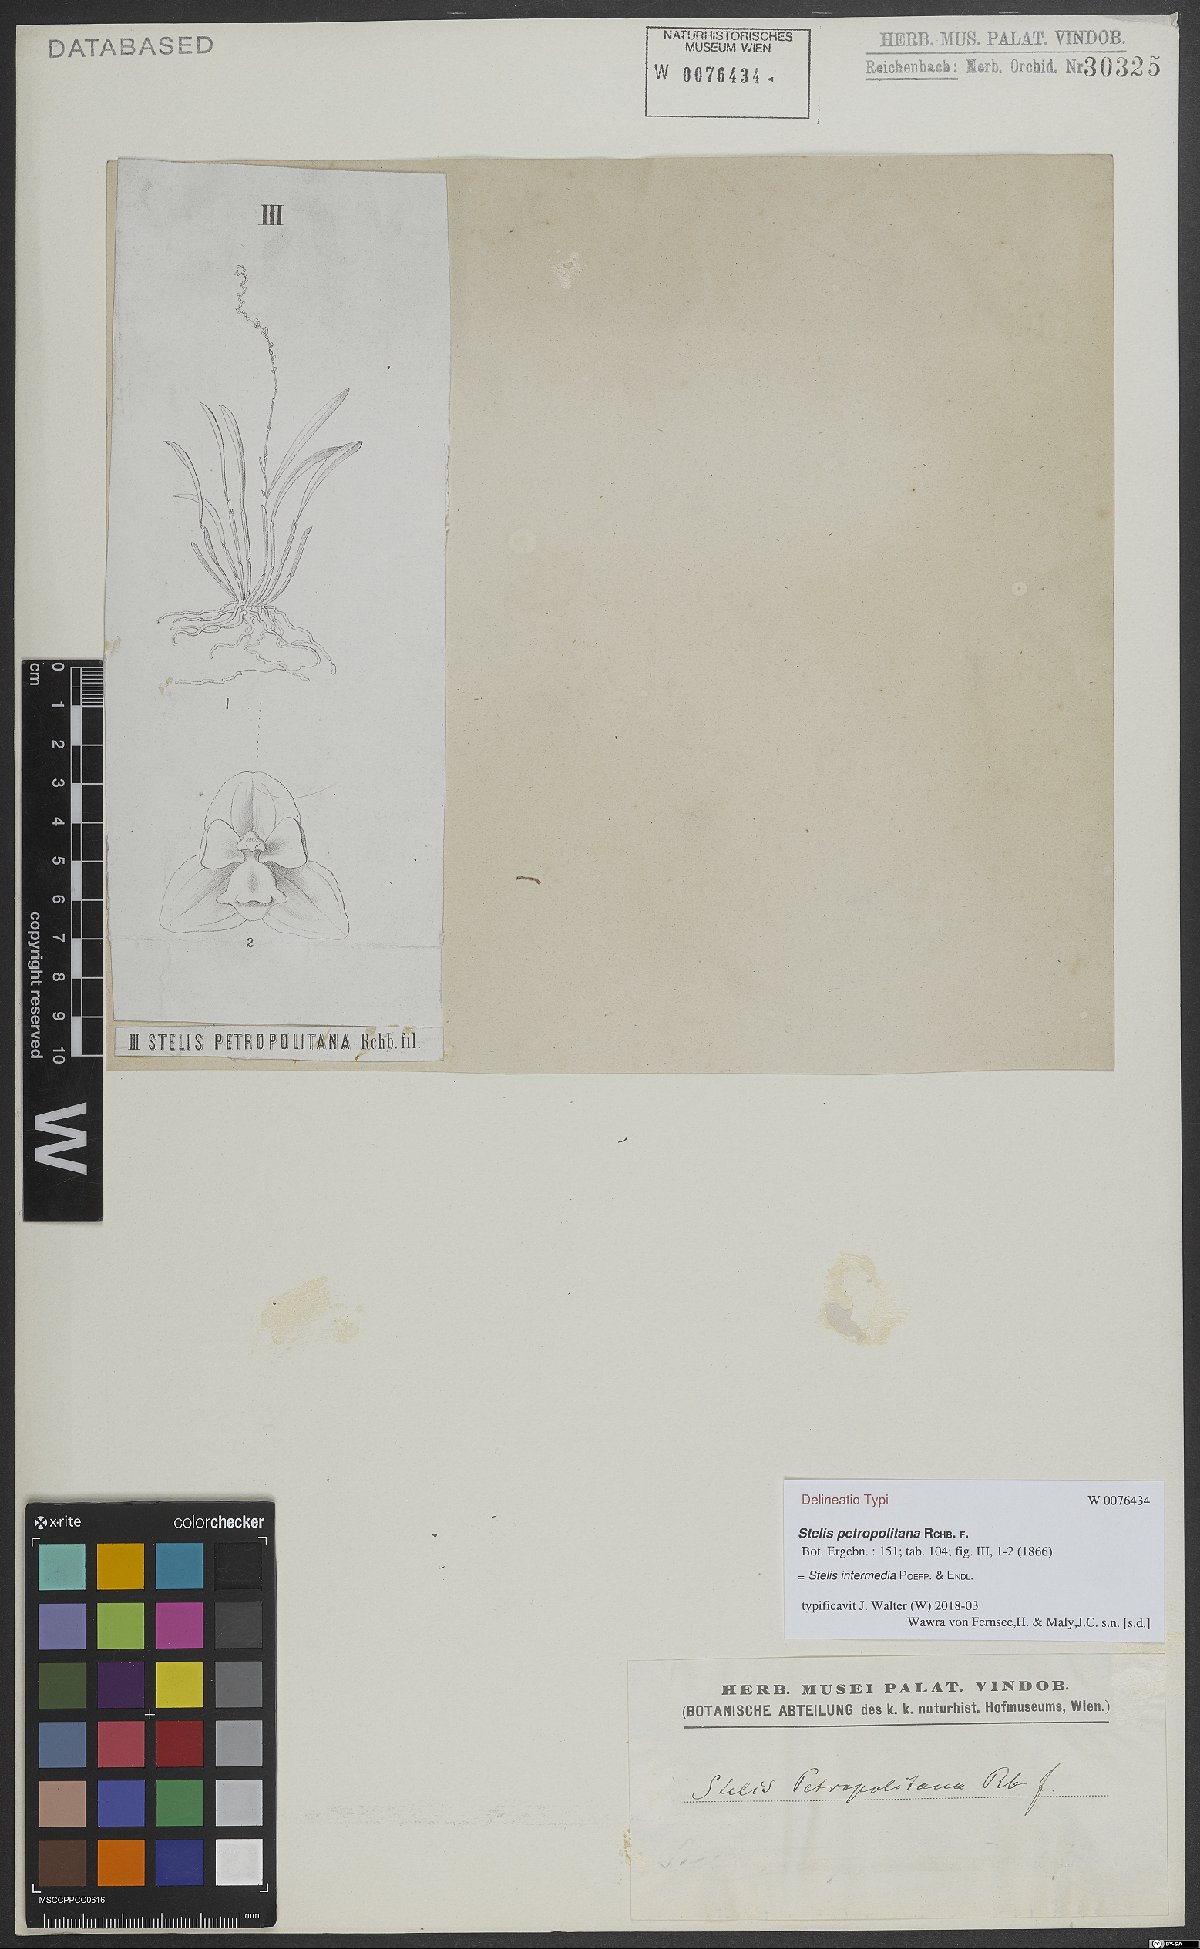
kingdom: Plantae
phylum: Tracheophyta
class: Liliopsida
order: Asparagales
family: Orchidaceae
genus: Stelis
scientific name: Stelis intermedia
